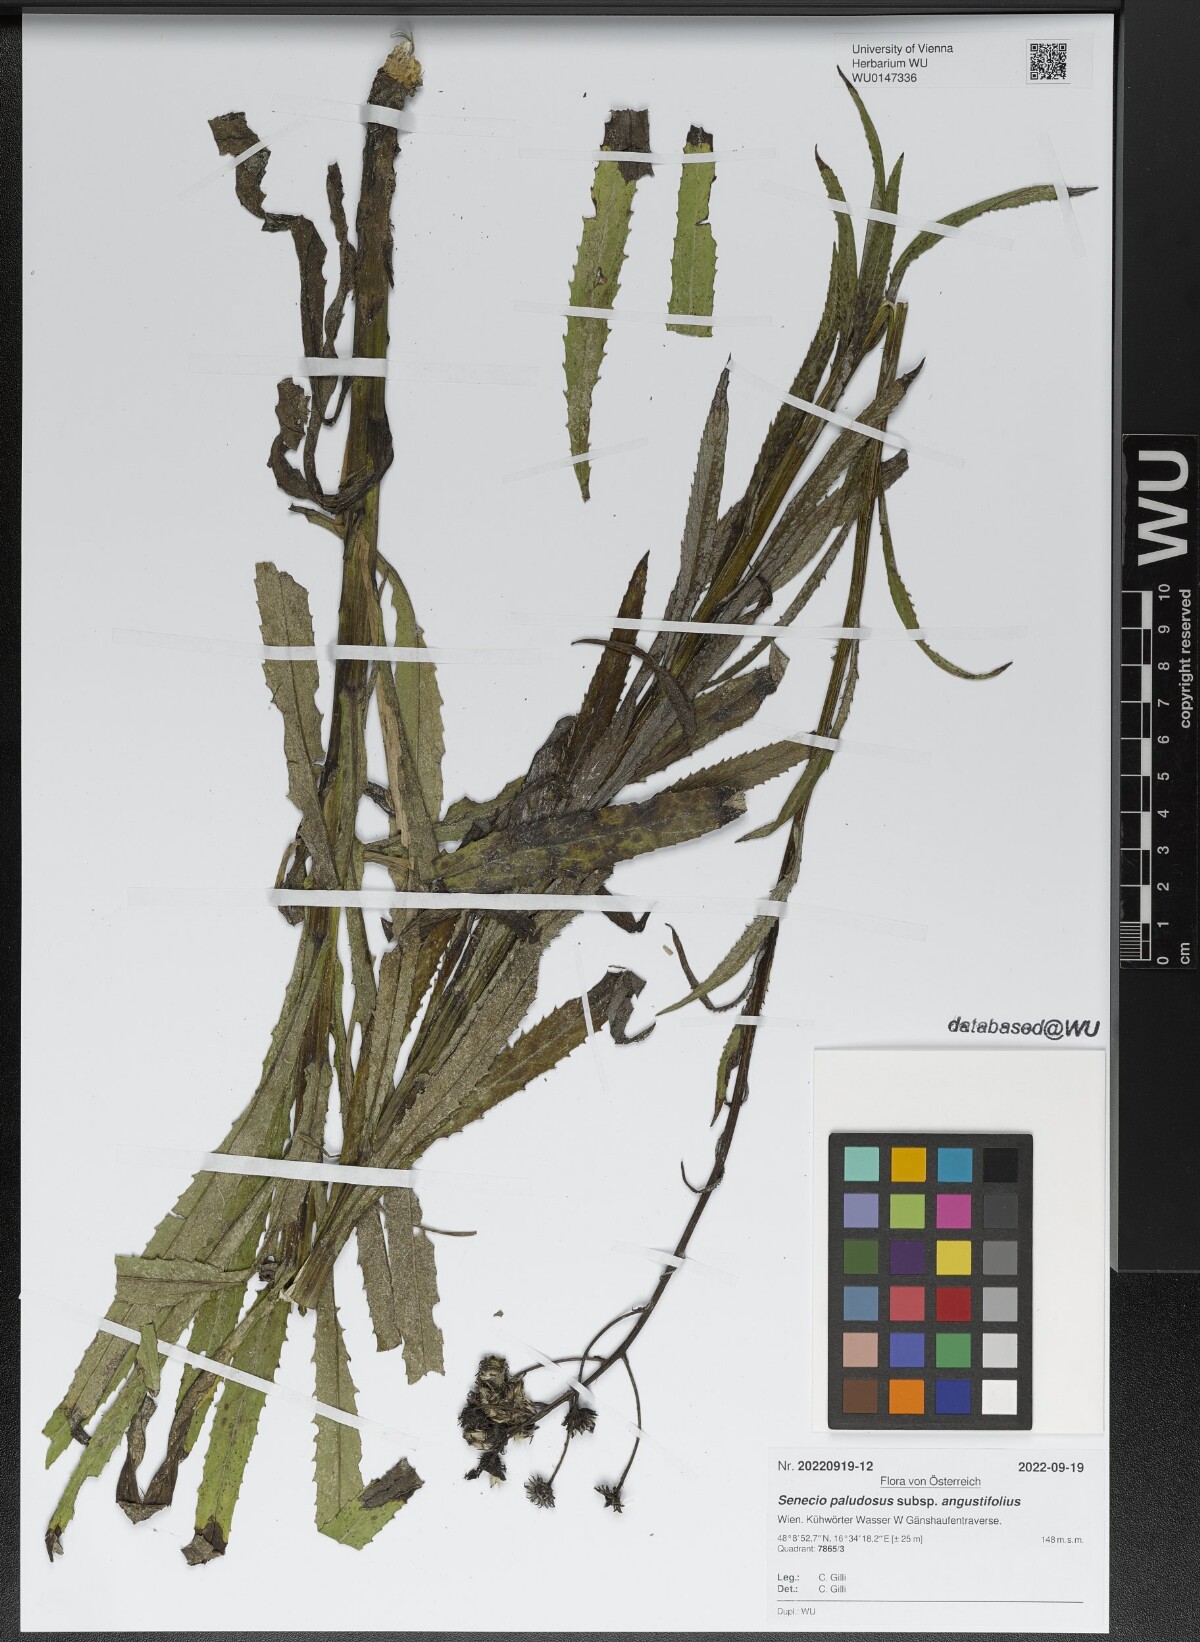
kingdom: Plantae
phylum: Tracheophyta
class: Magnoliopsida
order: Asterales
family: Asteraceae
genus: Jacobaea
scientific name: Jacobaea paludosa
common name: Fen ragwort
